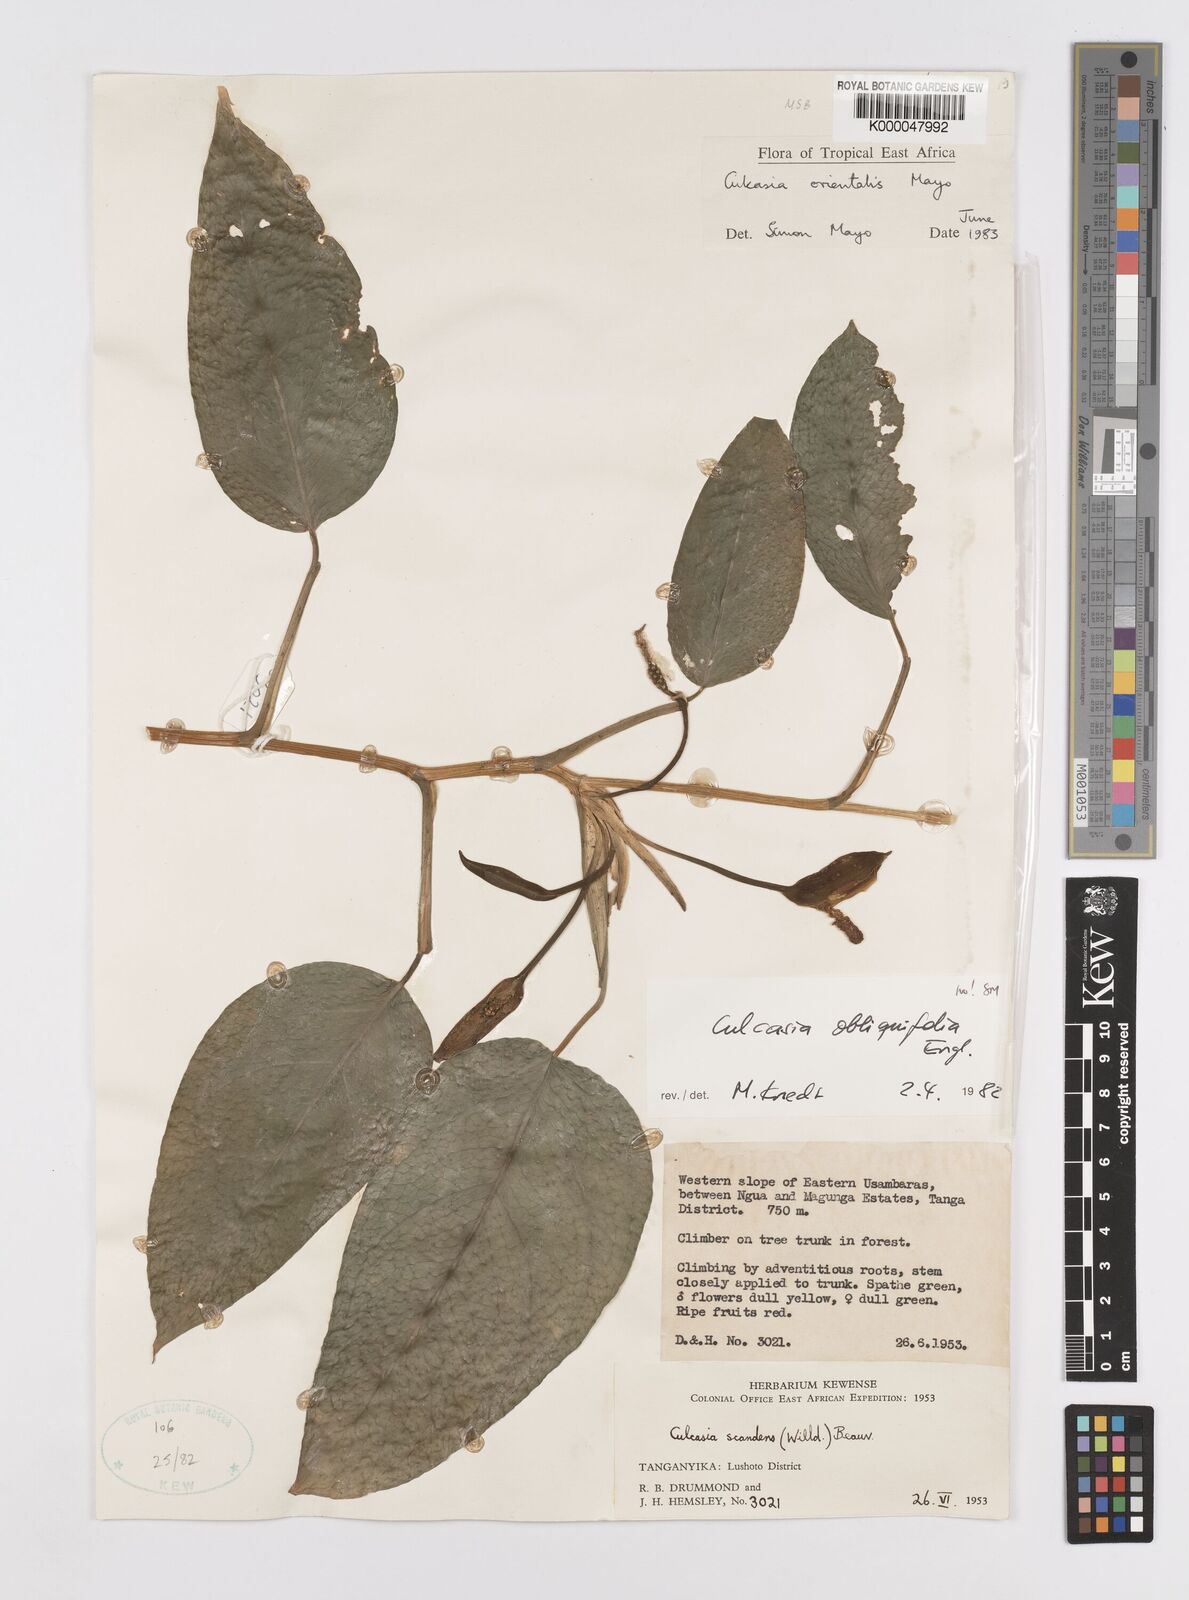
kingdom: Plantae
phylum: Tracheophyta
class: Liliopsida
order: Alismatales
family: Araceae
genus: Culcasia
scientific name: Culcasia orientalis
